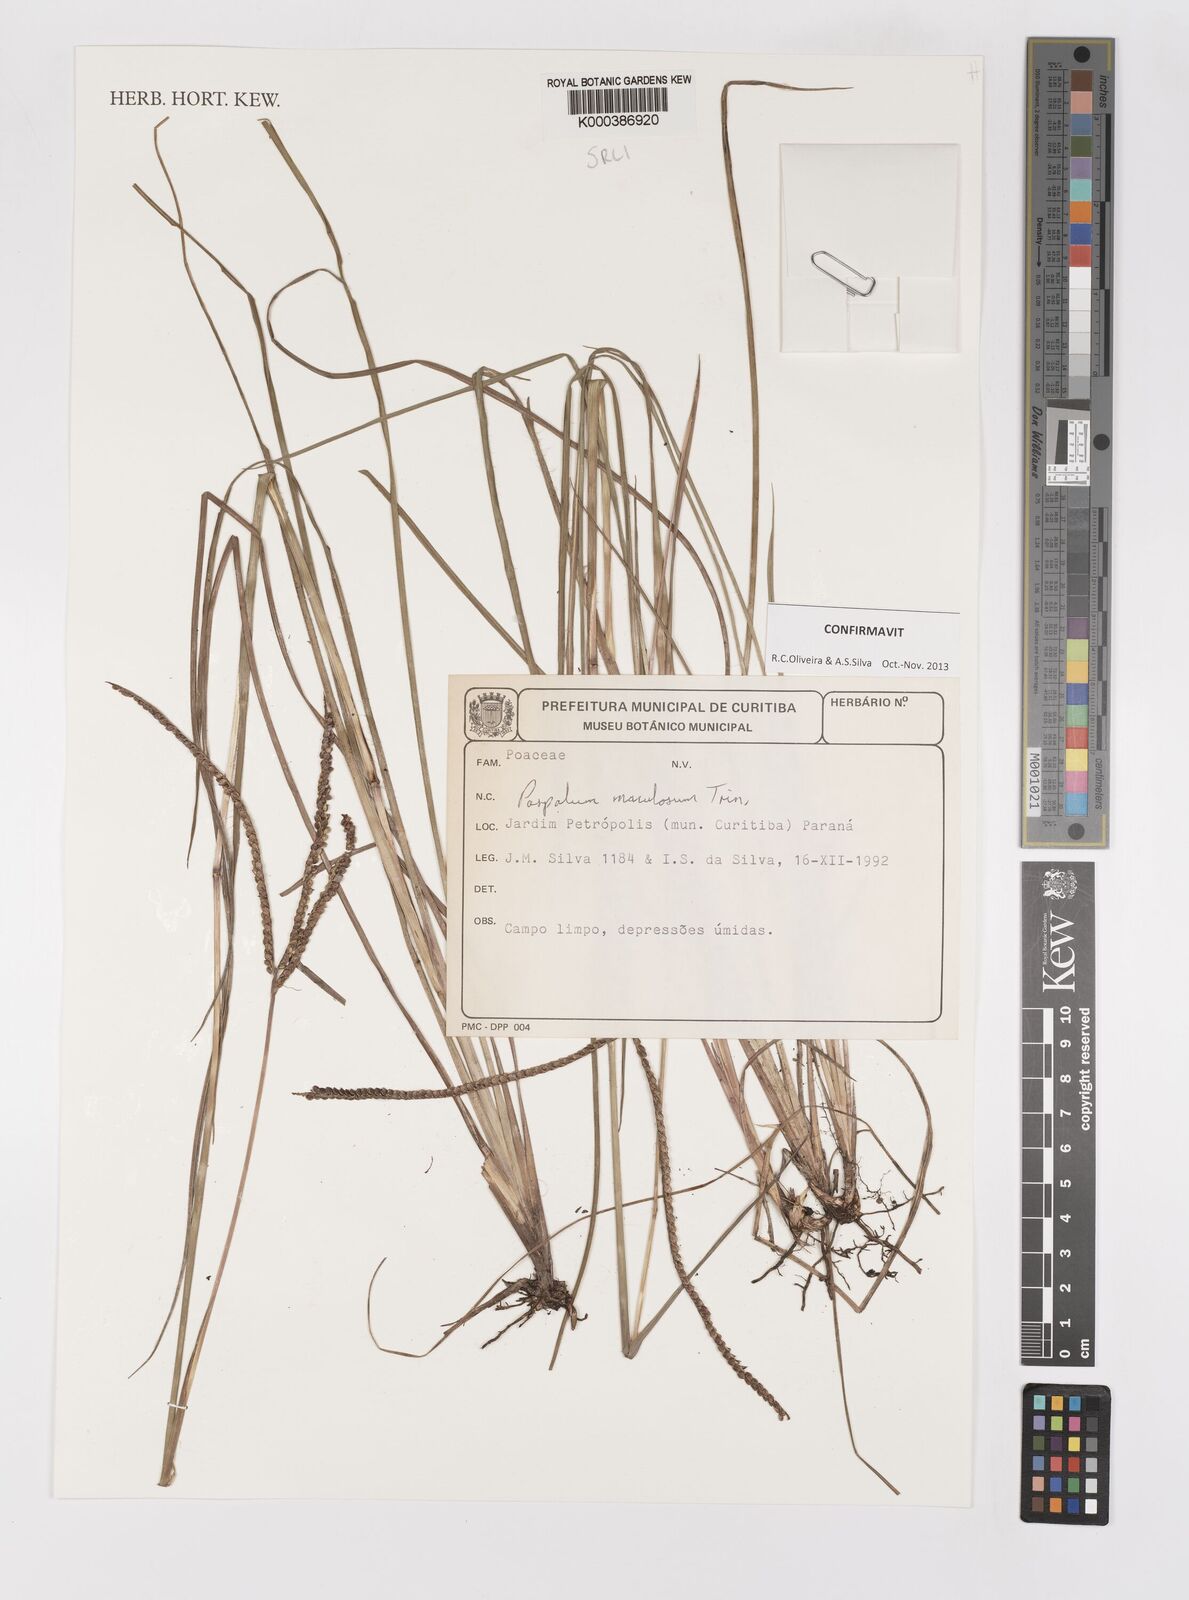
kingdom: Plantae
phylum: Tracheophyta
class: Liliopsida
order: Poales
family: Poaceae
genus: Paspalum
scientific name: Paspalum maculosum
